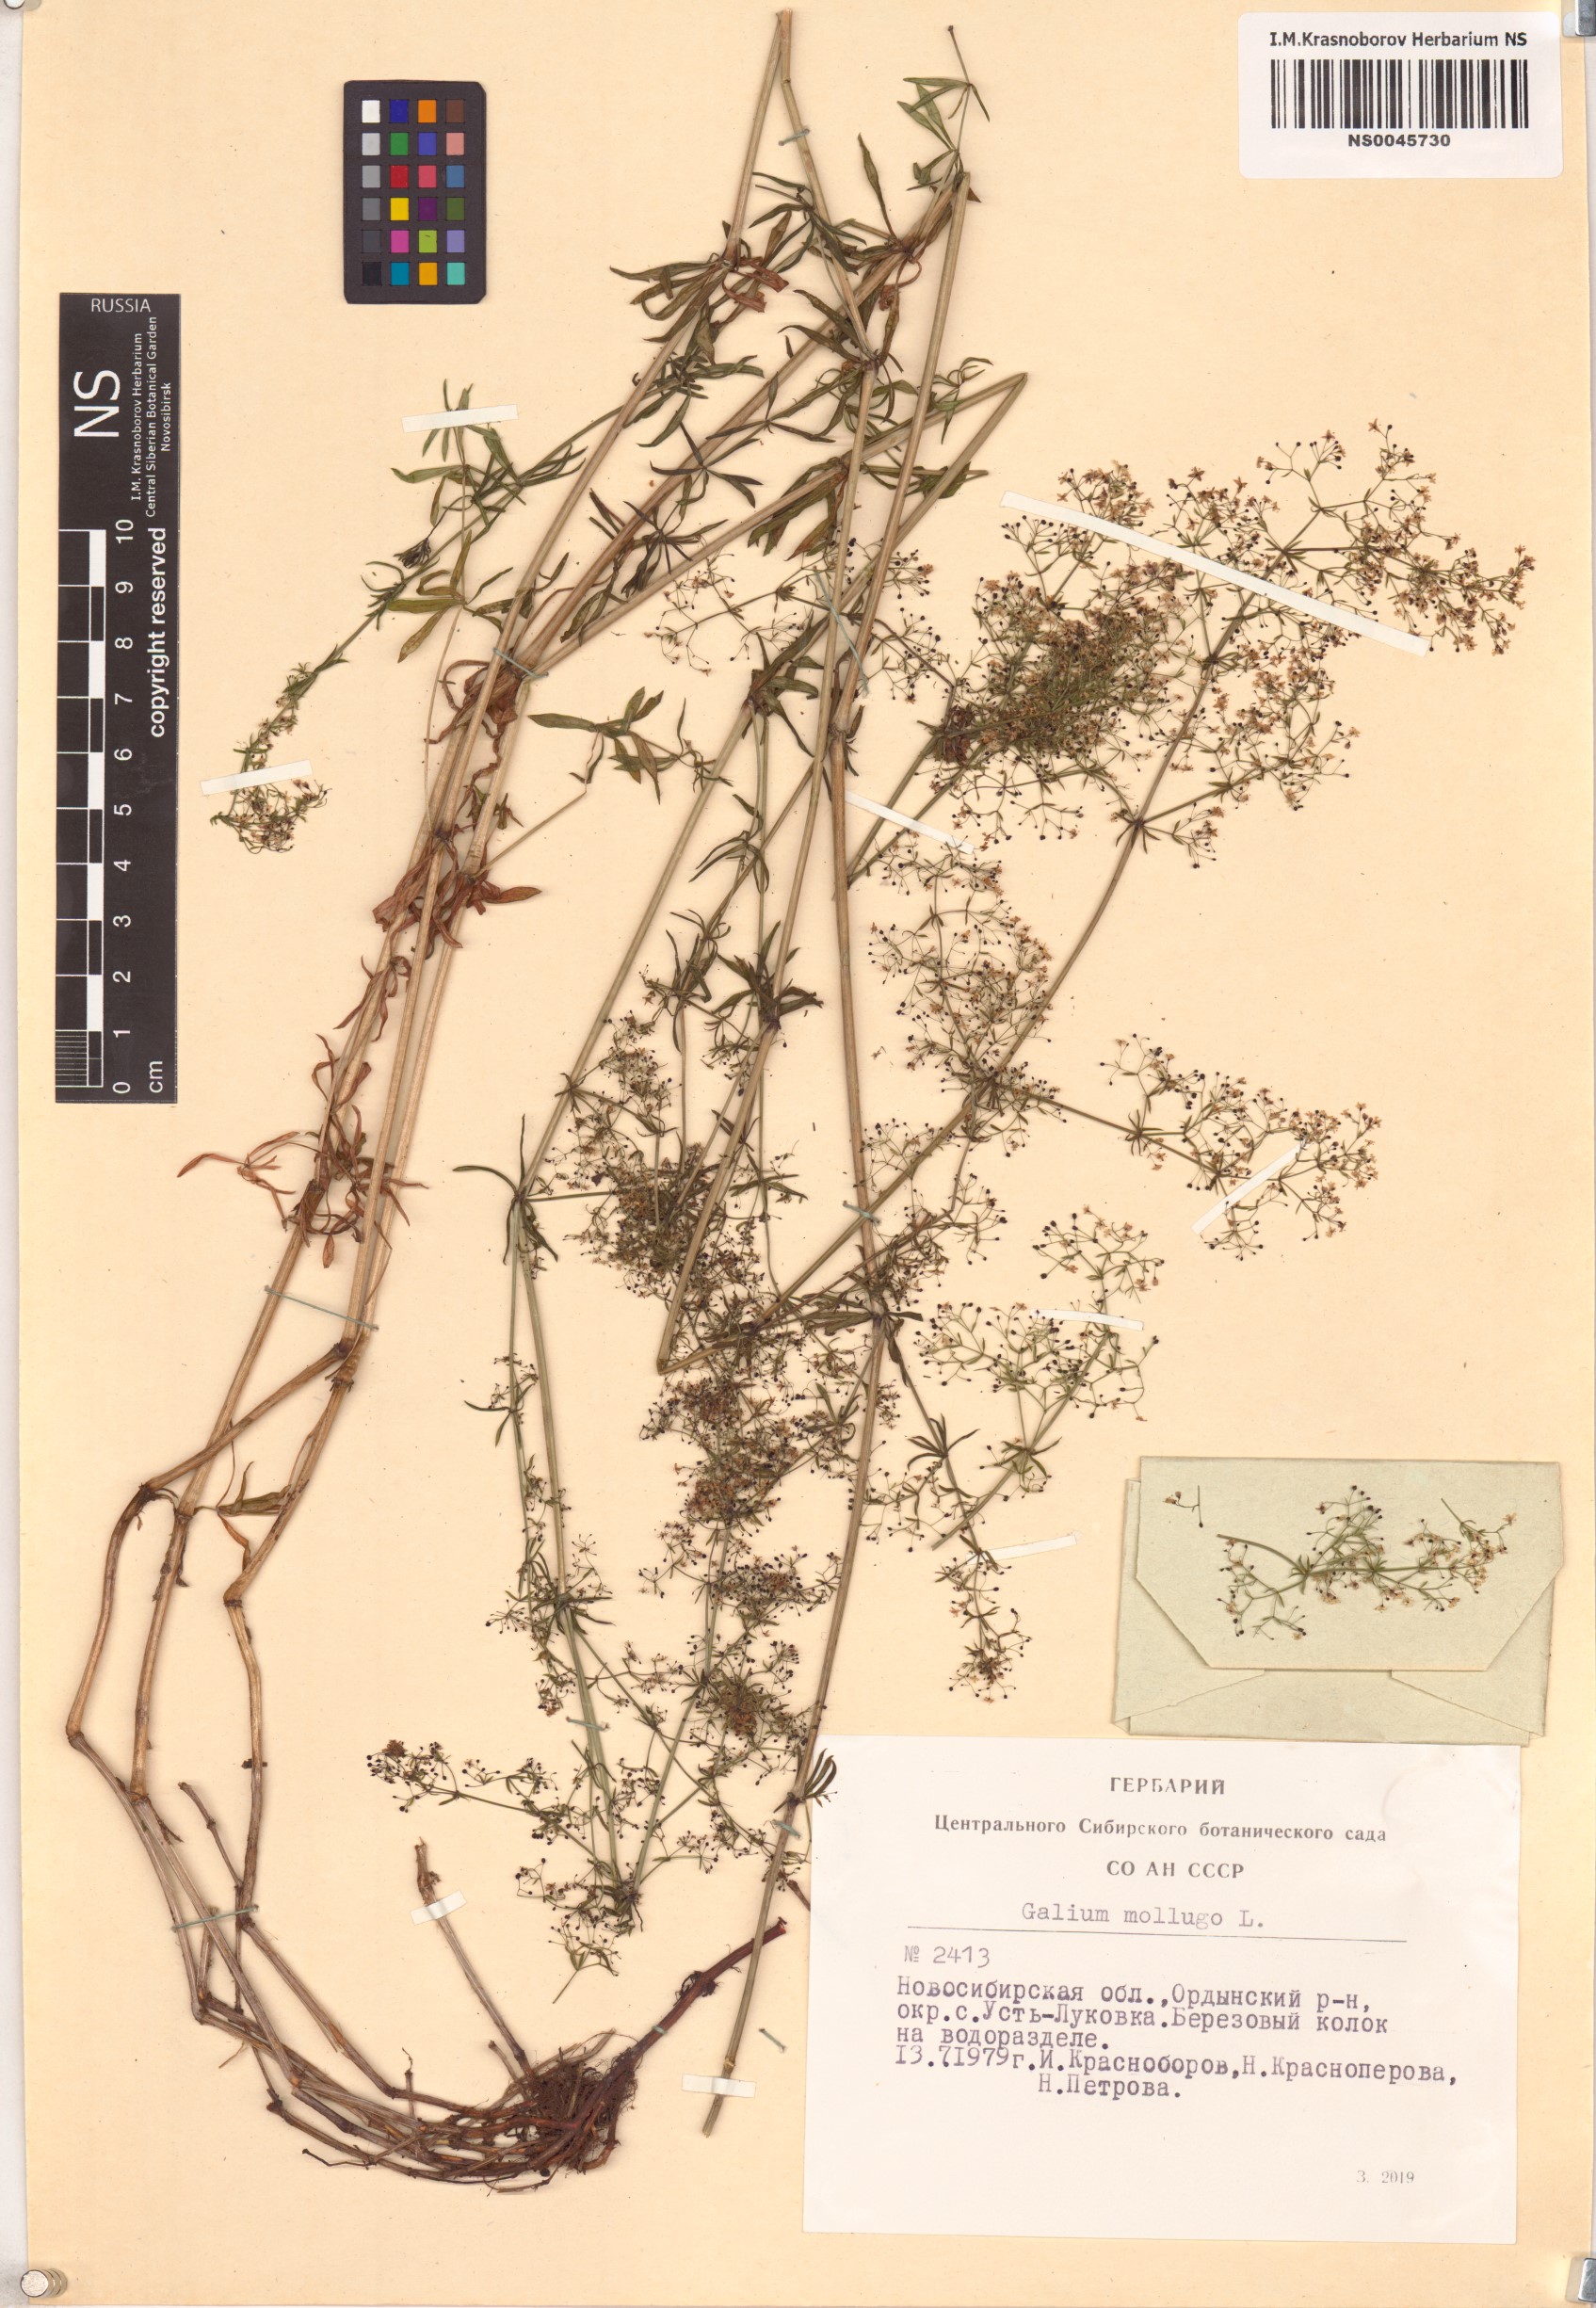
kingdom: Plantae
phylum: Tracheophyta
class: Magnoliopsida
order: Gentianales
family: Rubiaceae
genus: Galium
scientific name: Galium mollugo
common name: Hedge bedstraw
